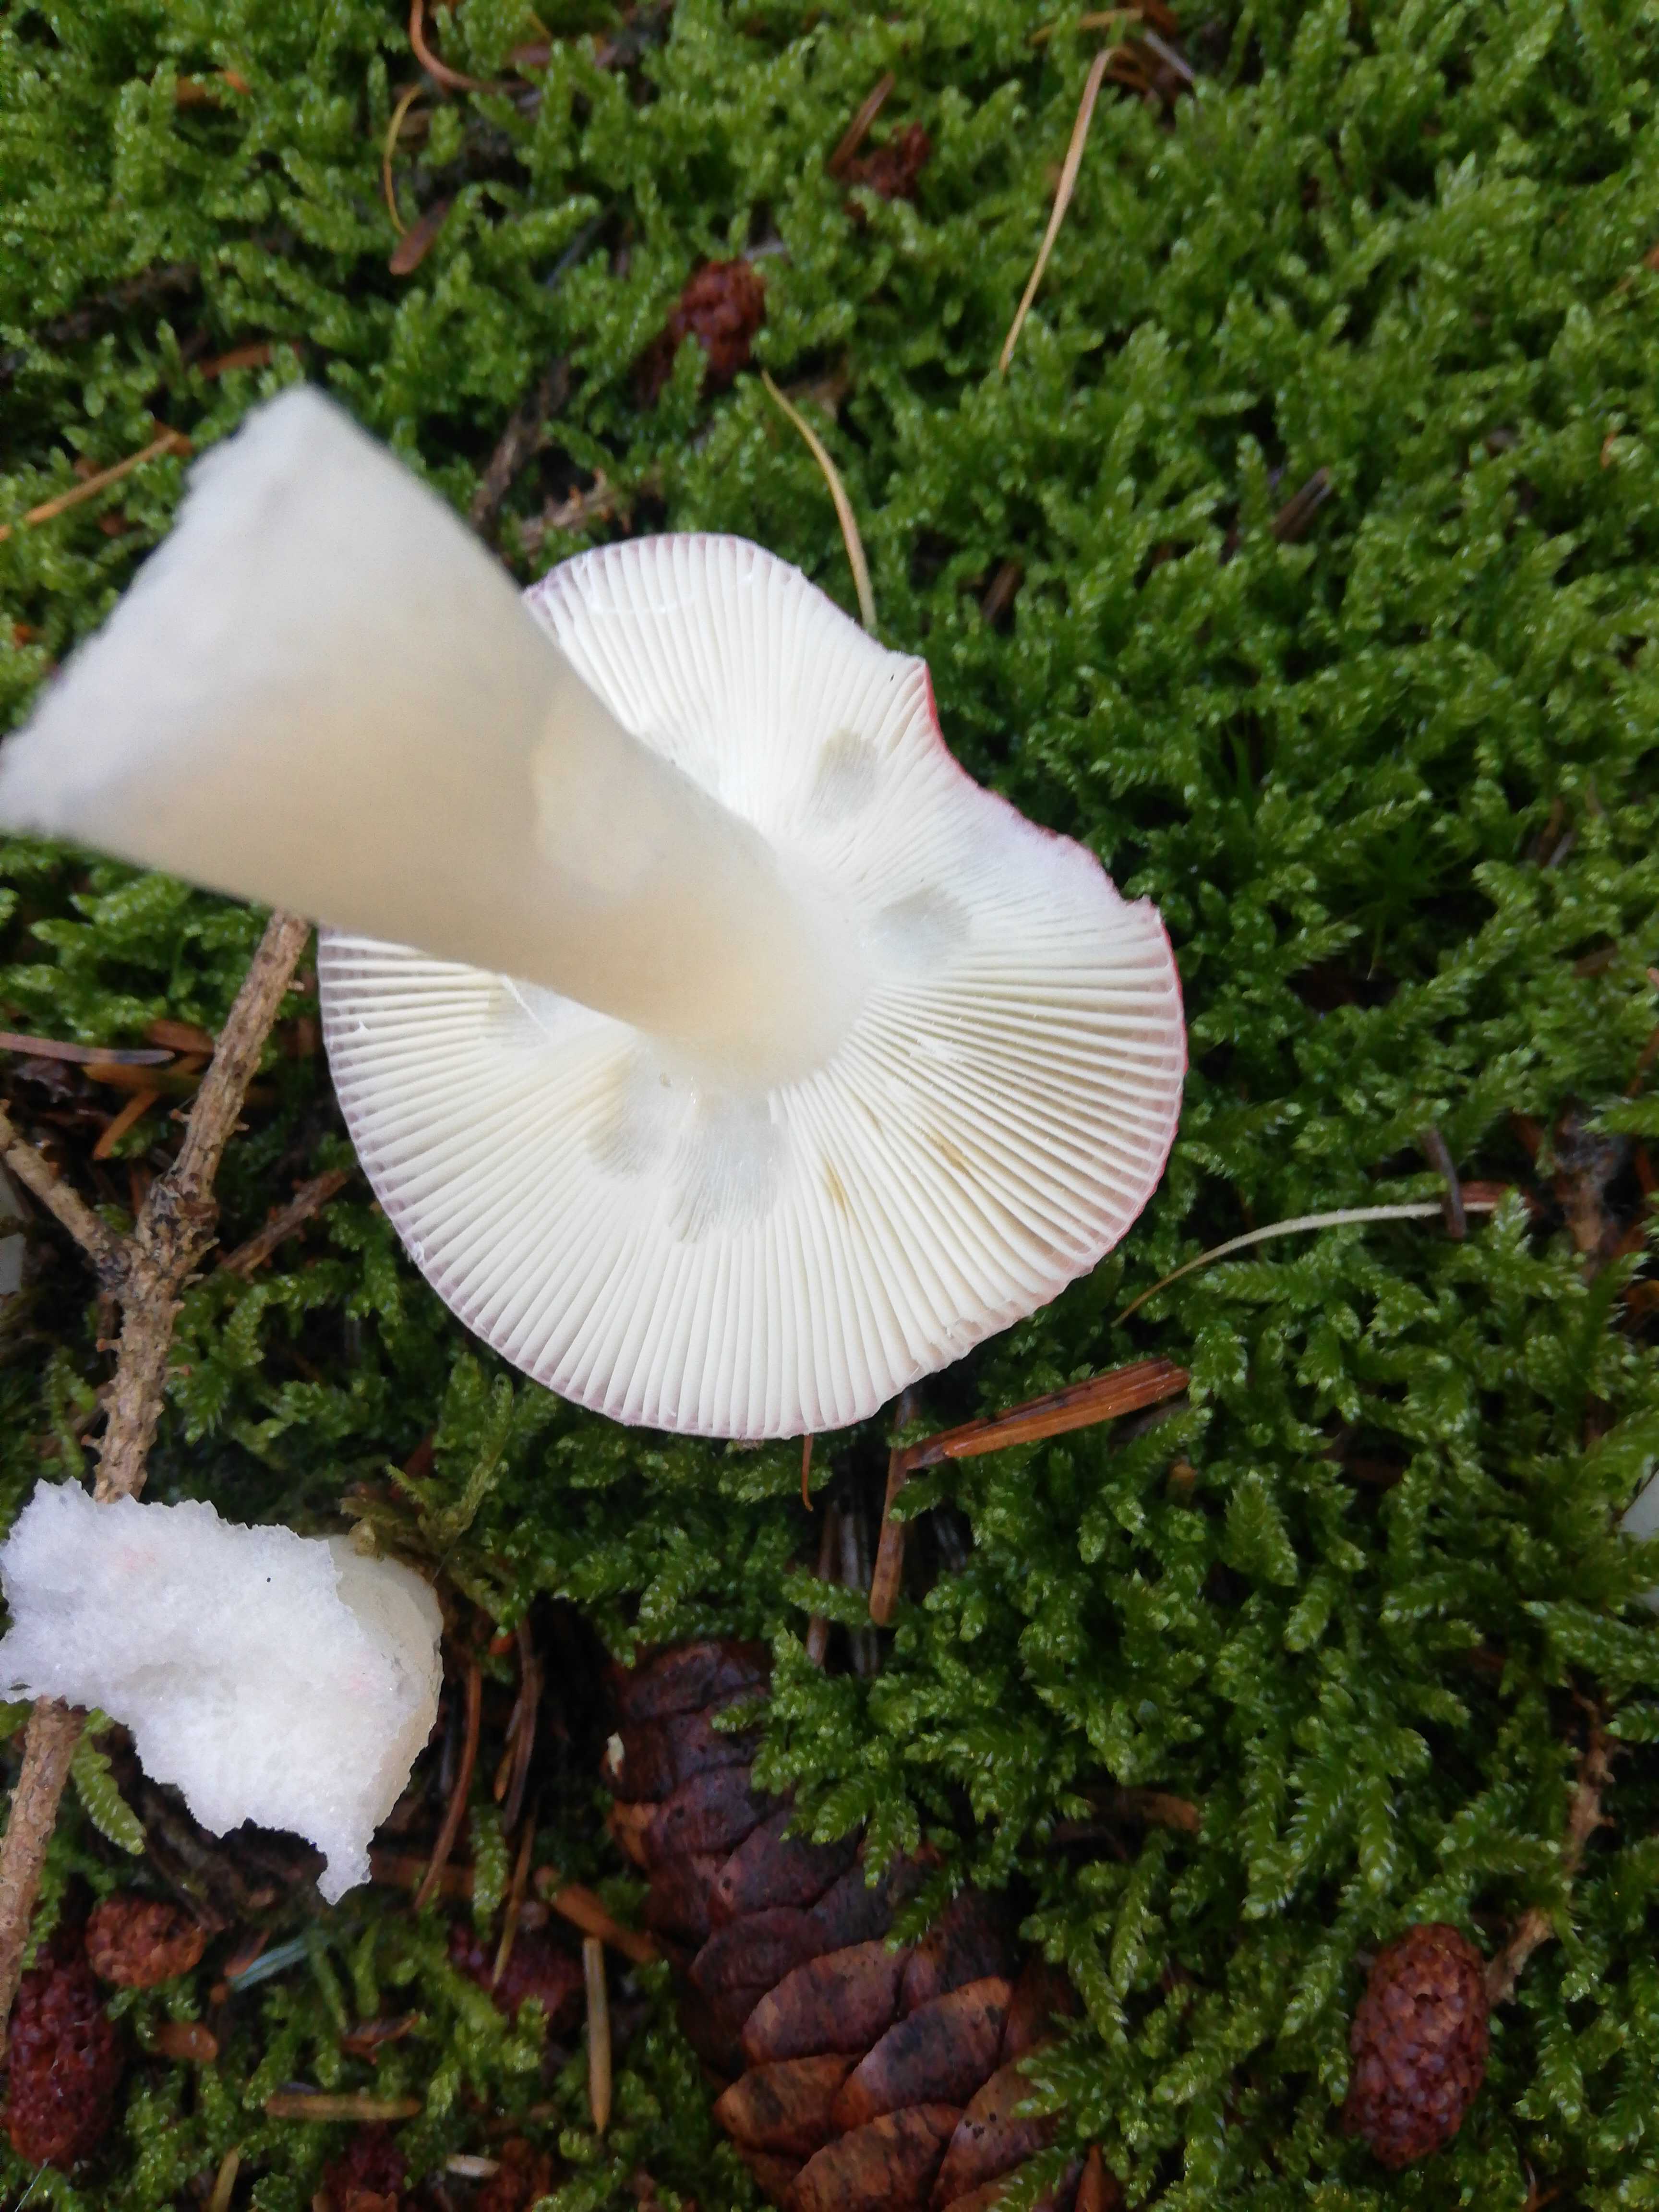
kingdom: Fungi
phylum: Basidiomycota
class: Agaricomycetes
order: Russulales
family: Russulaceae
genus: Russula
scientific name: Russula
